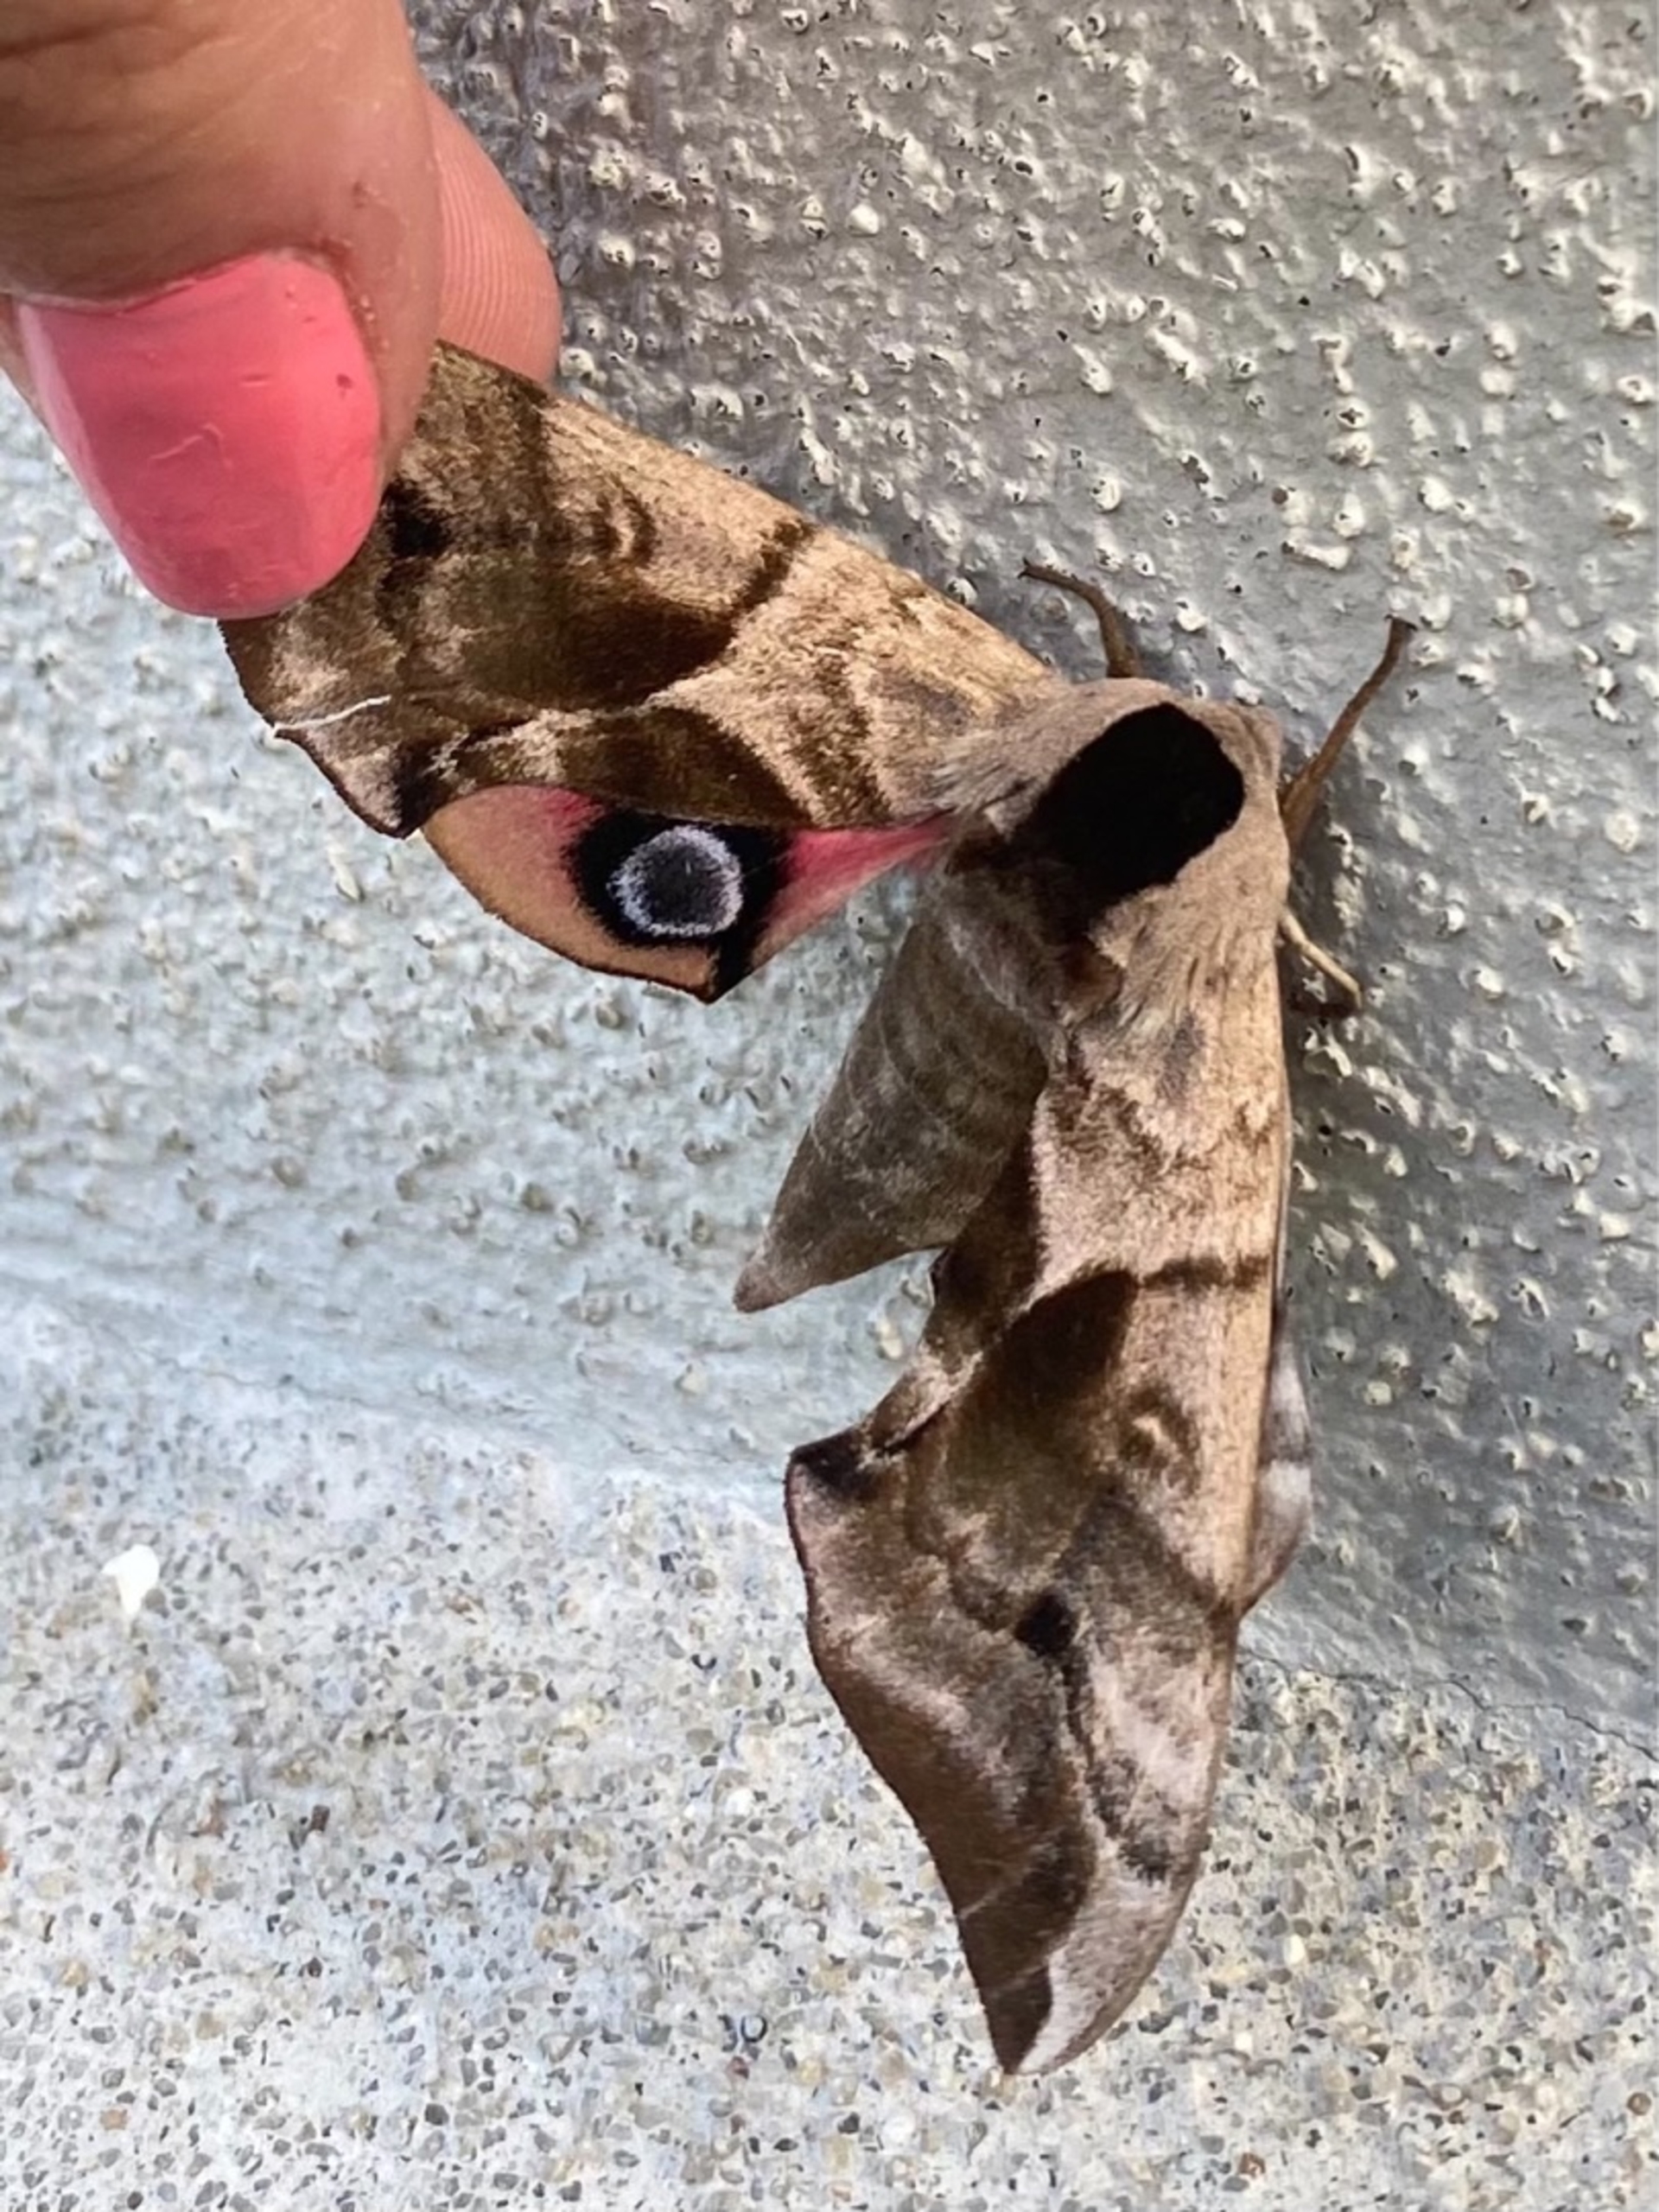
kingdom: Animalia
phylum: Arthropoda
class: Insecta
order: Lepidoptera
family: Sphingidae
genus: Smerinthus
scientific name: Smerinthus ocellata
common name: Aftenpåfugleøje
